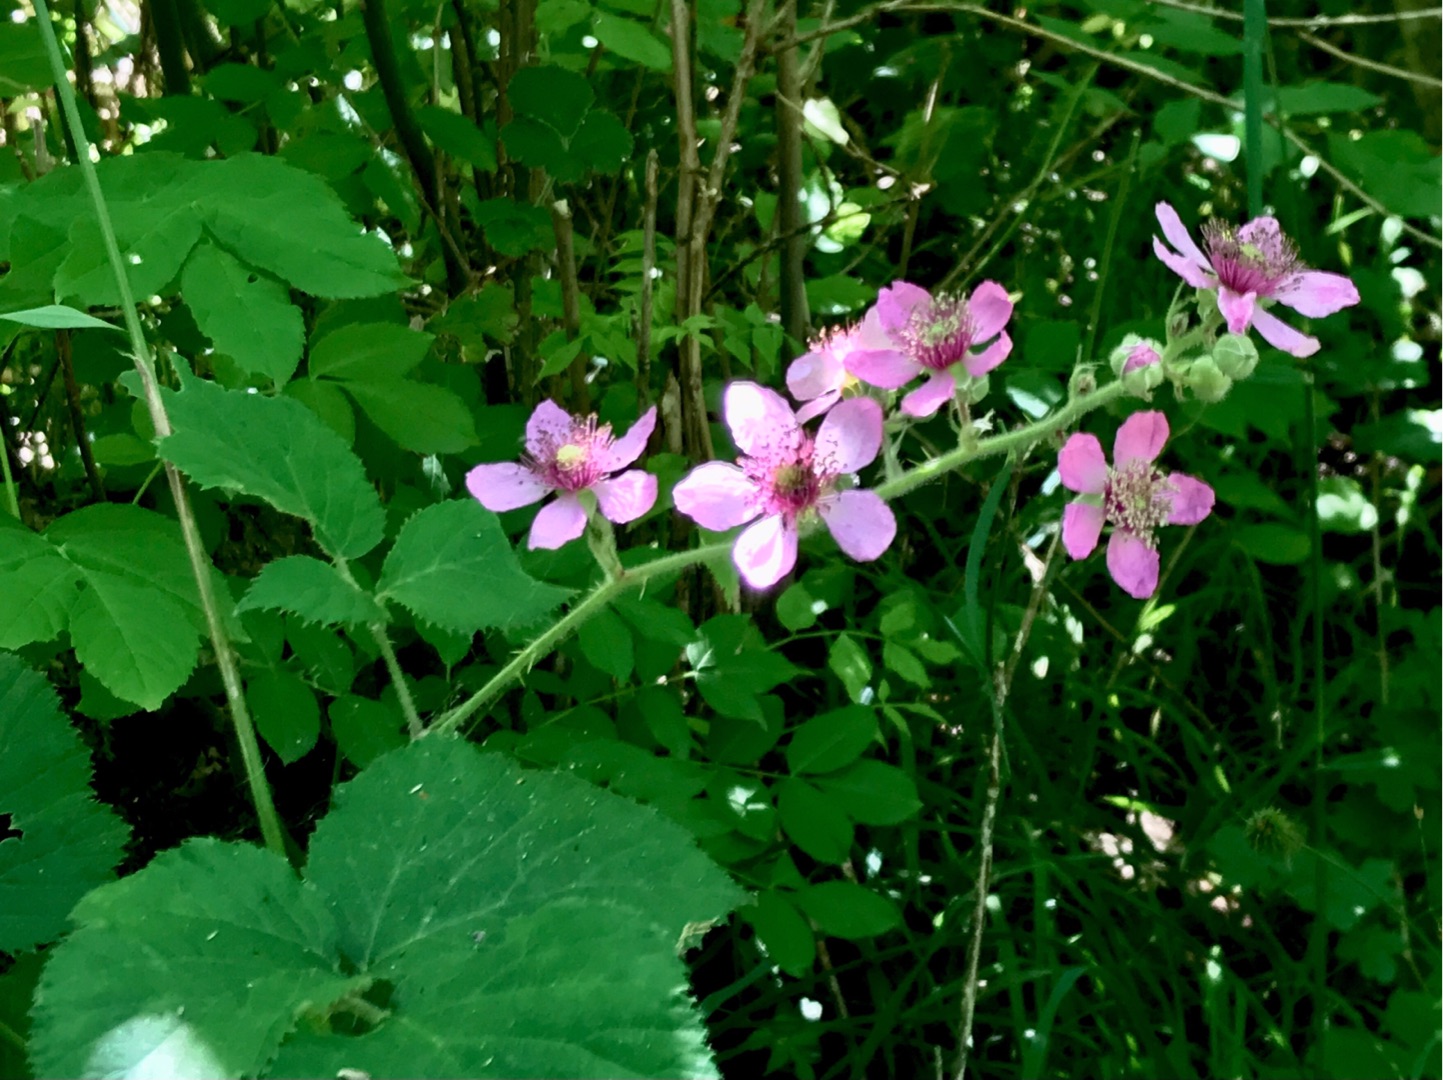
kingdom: Plantae
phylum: Tracheophyta
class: Magnoliopsida
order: Rosales
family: Rosaceae
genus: Rubus
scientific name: Rubus vestitus
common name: Rundbladet brombær
